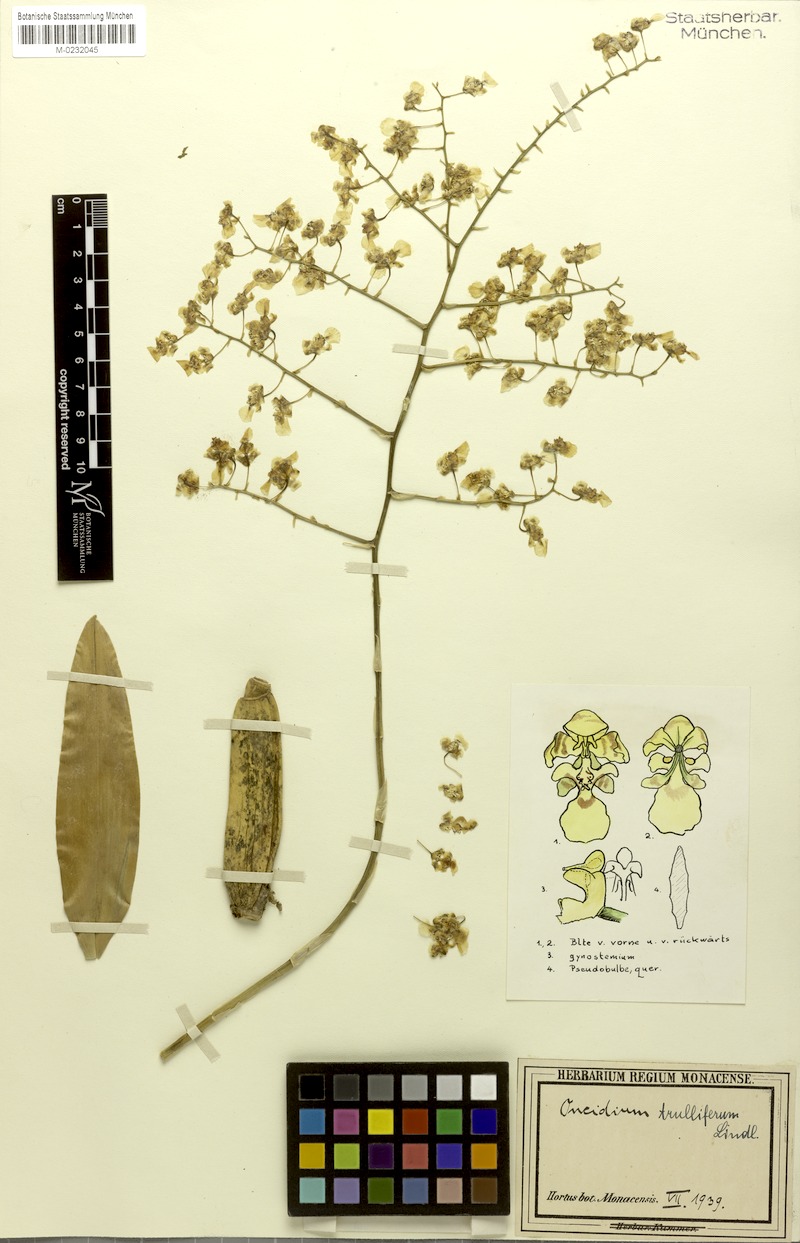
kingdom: Plantae
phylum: Tracheophyta
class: Liliopsida
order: Asparagales
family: Orchidaceae
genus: Gomesa
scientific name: Gomesa venusta
